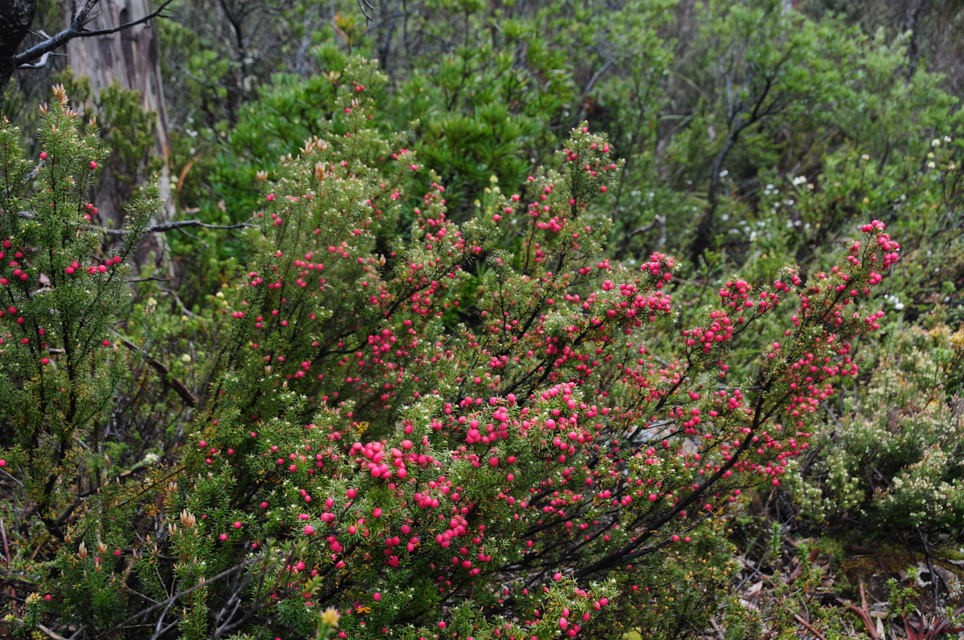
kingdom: Plantae
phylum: Tracheophyta
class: Magnoliopsida
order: Ericales
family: Ericaceae
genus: Trochocarpa
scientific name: Trochocarpa gunnii
